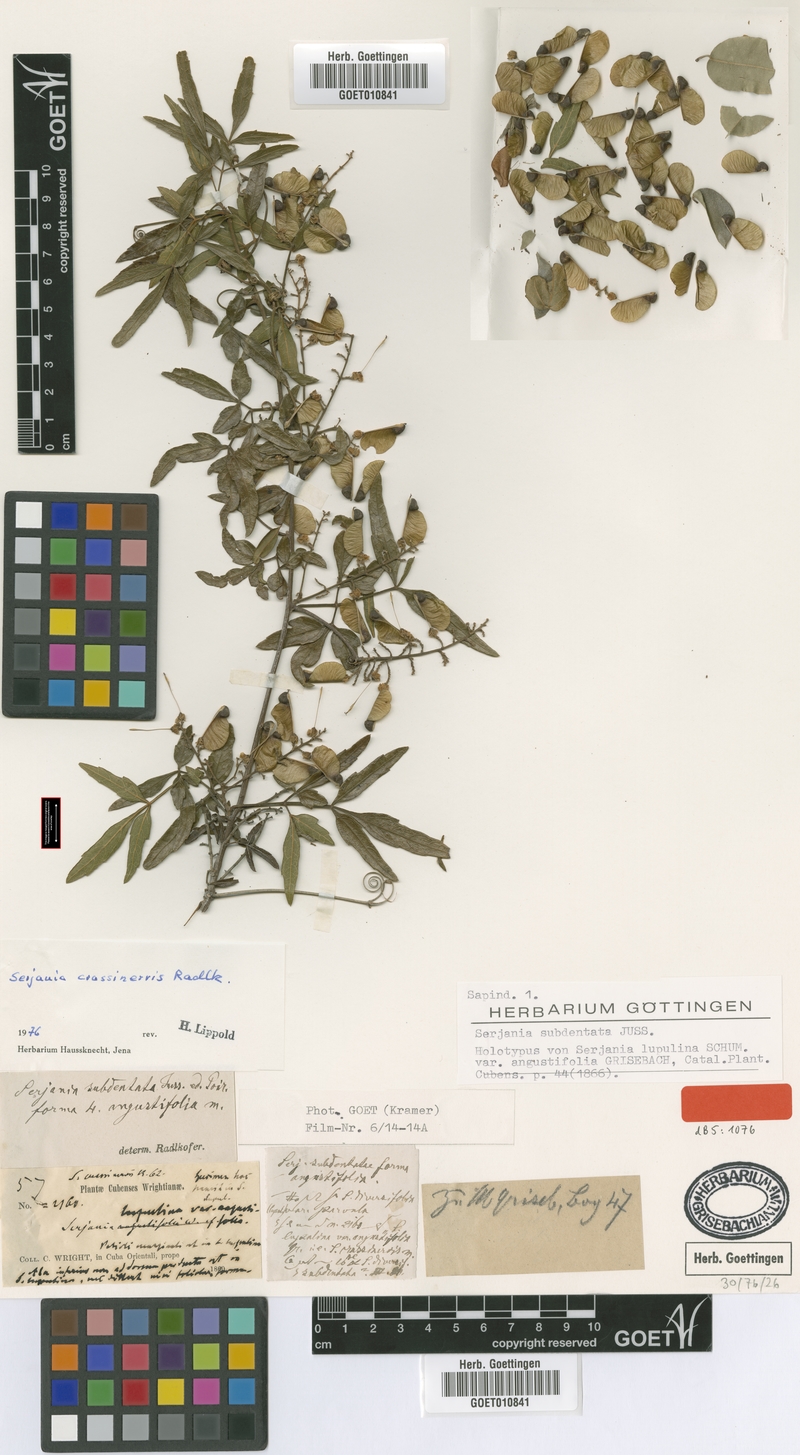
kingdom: Plantae
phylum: Tracheophyta
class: Magnoliopsida
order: Sapindales
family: Sapindaceae
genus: Serjania
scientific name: Serjania crassinervis
